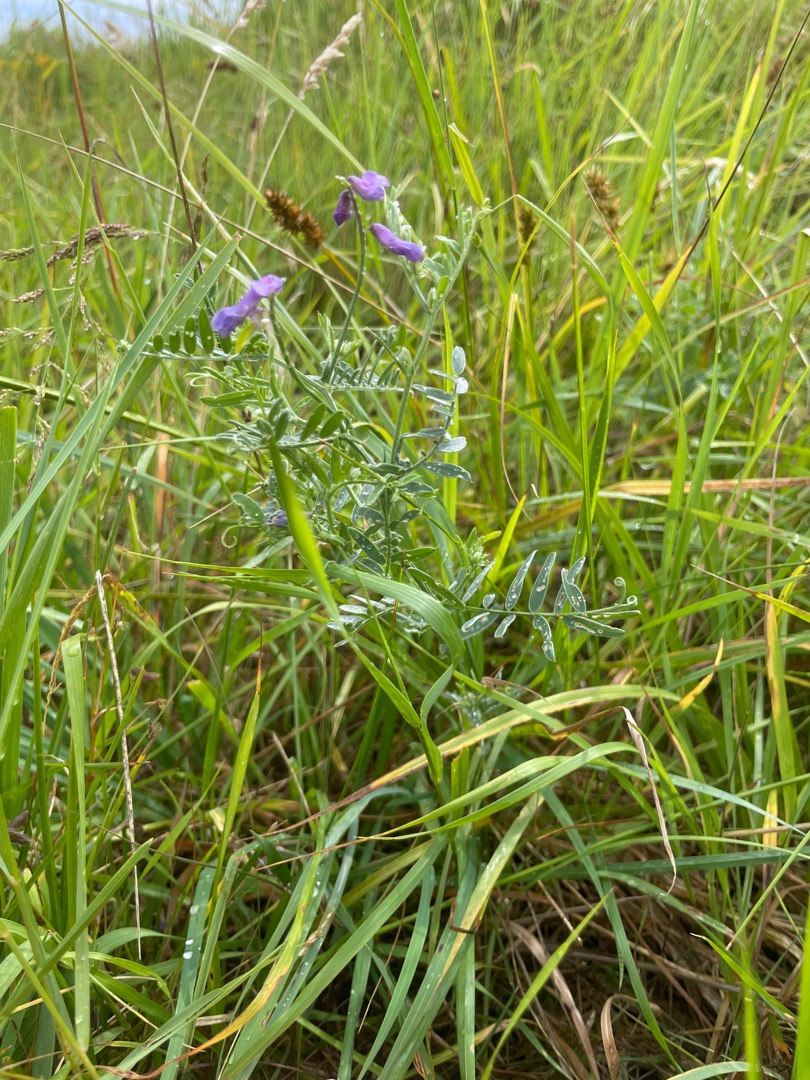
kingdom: Plantae
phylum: Tracheophyta
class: Magnoliopsida
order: Fabales
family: Fabaceae
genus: Vicia
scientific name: Vicia cracca
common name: Muse-vikke
